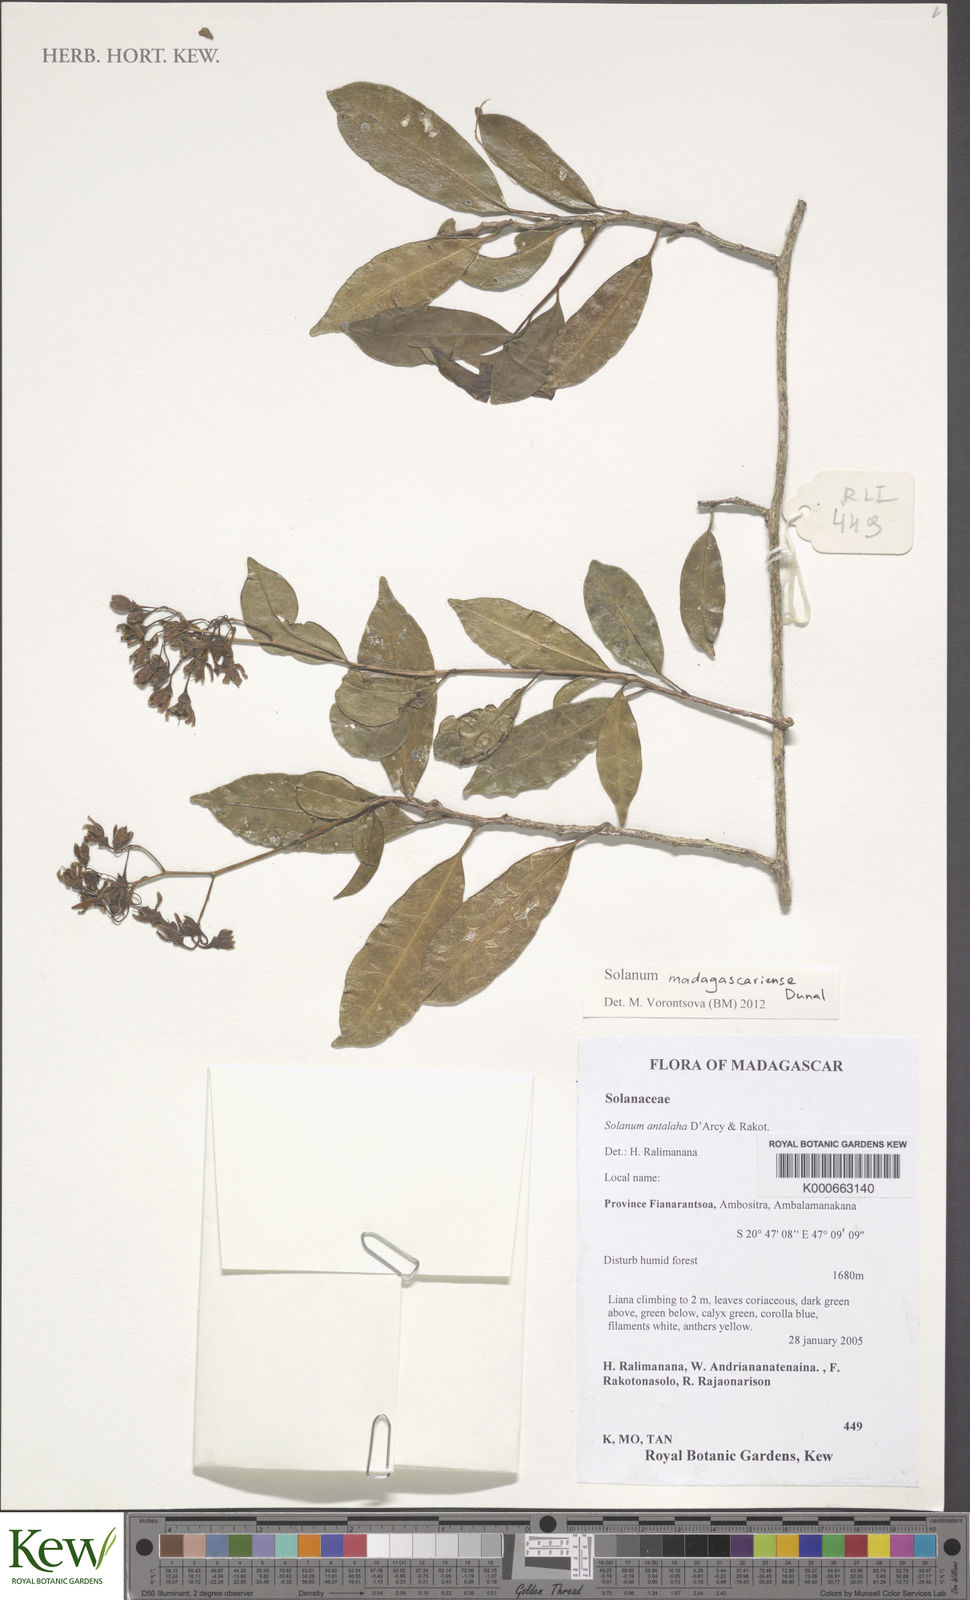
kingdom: Plantae
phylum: Tracheophyta
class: Magnoliopsida
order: Solanales
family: Solanaceae
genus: Solanum
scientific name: Solanum madagascariense
